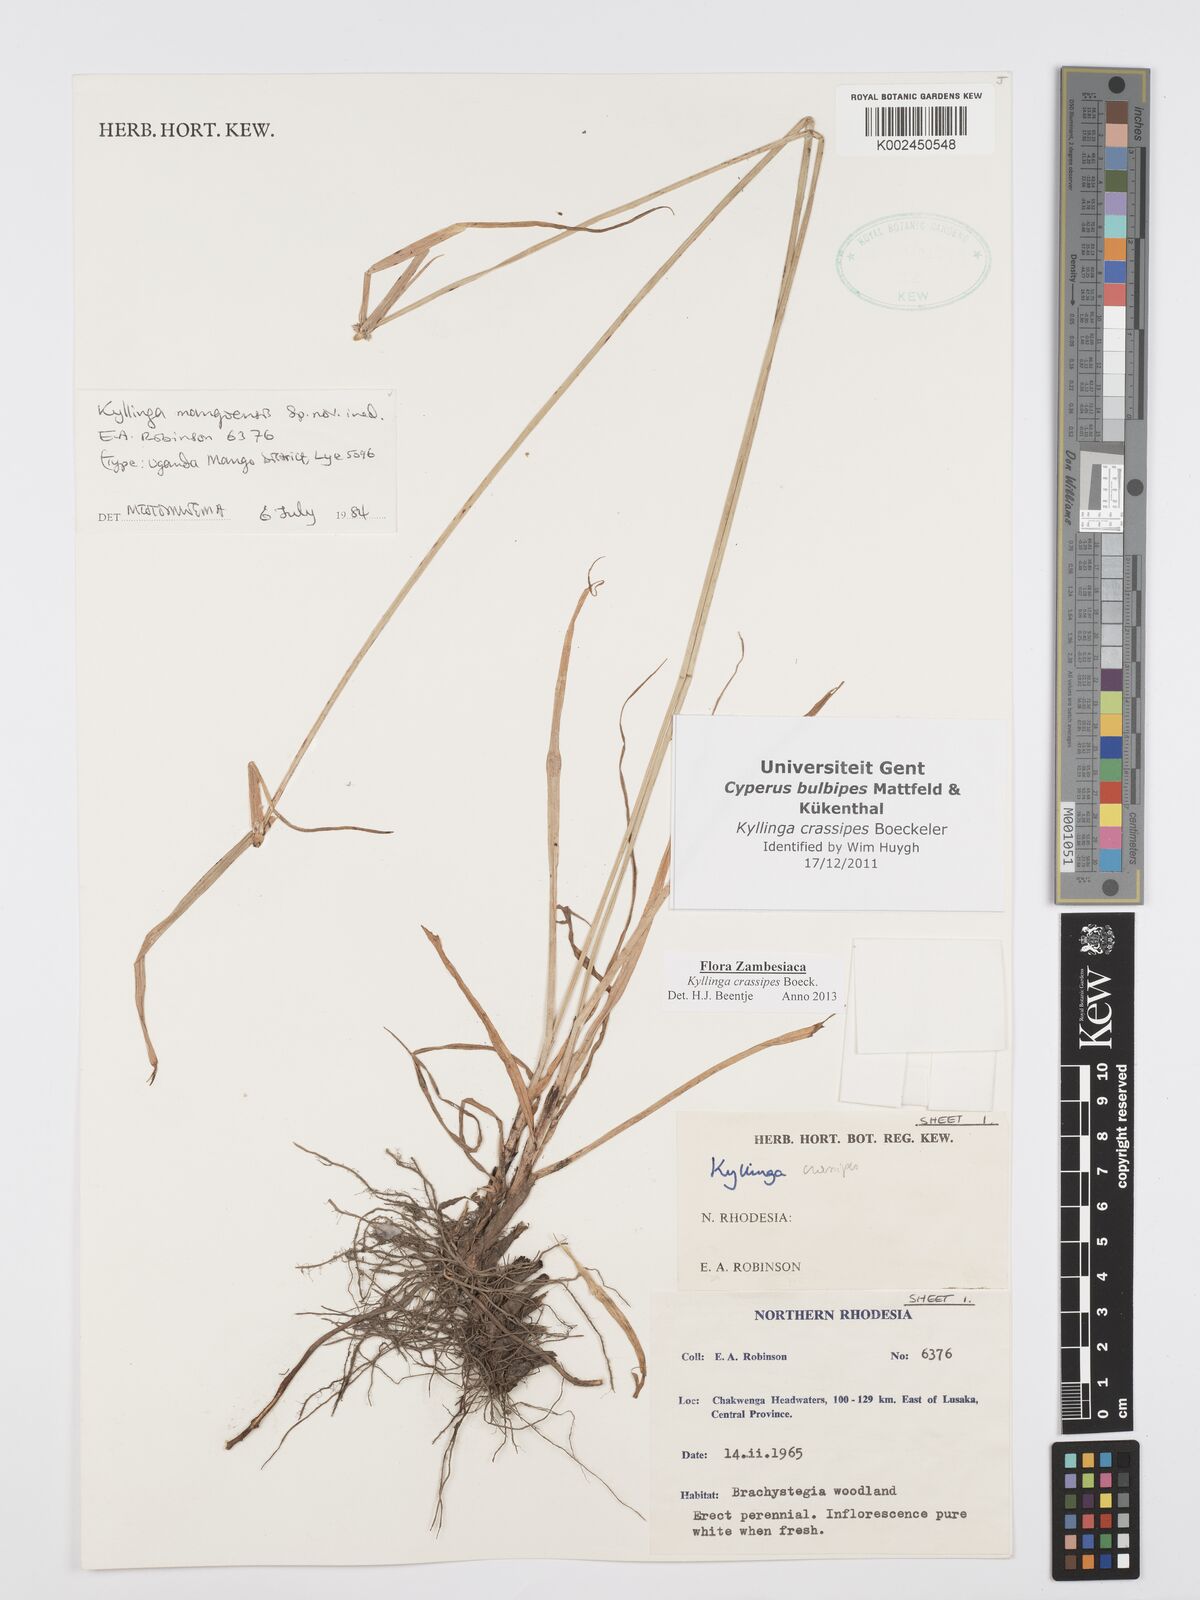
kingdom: Plantae
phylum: Tracheophyta
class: Liliopsida
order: Poales
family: Cyperaceae
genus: Cyperus
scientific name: Cyperus crassipes
